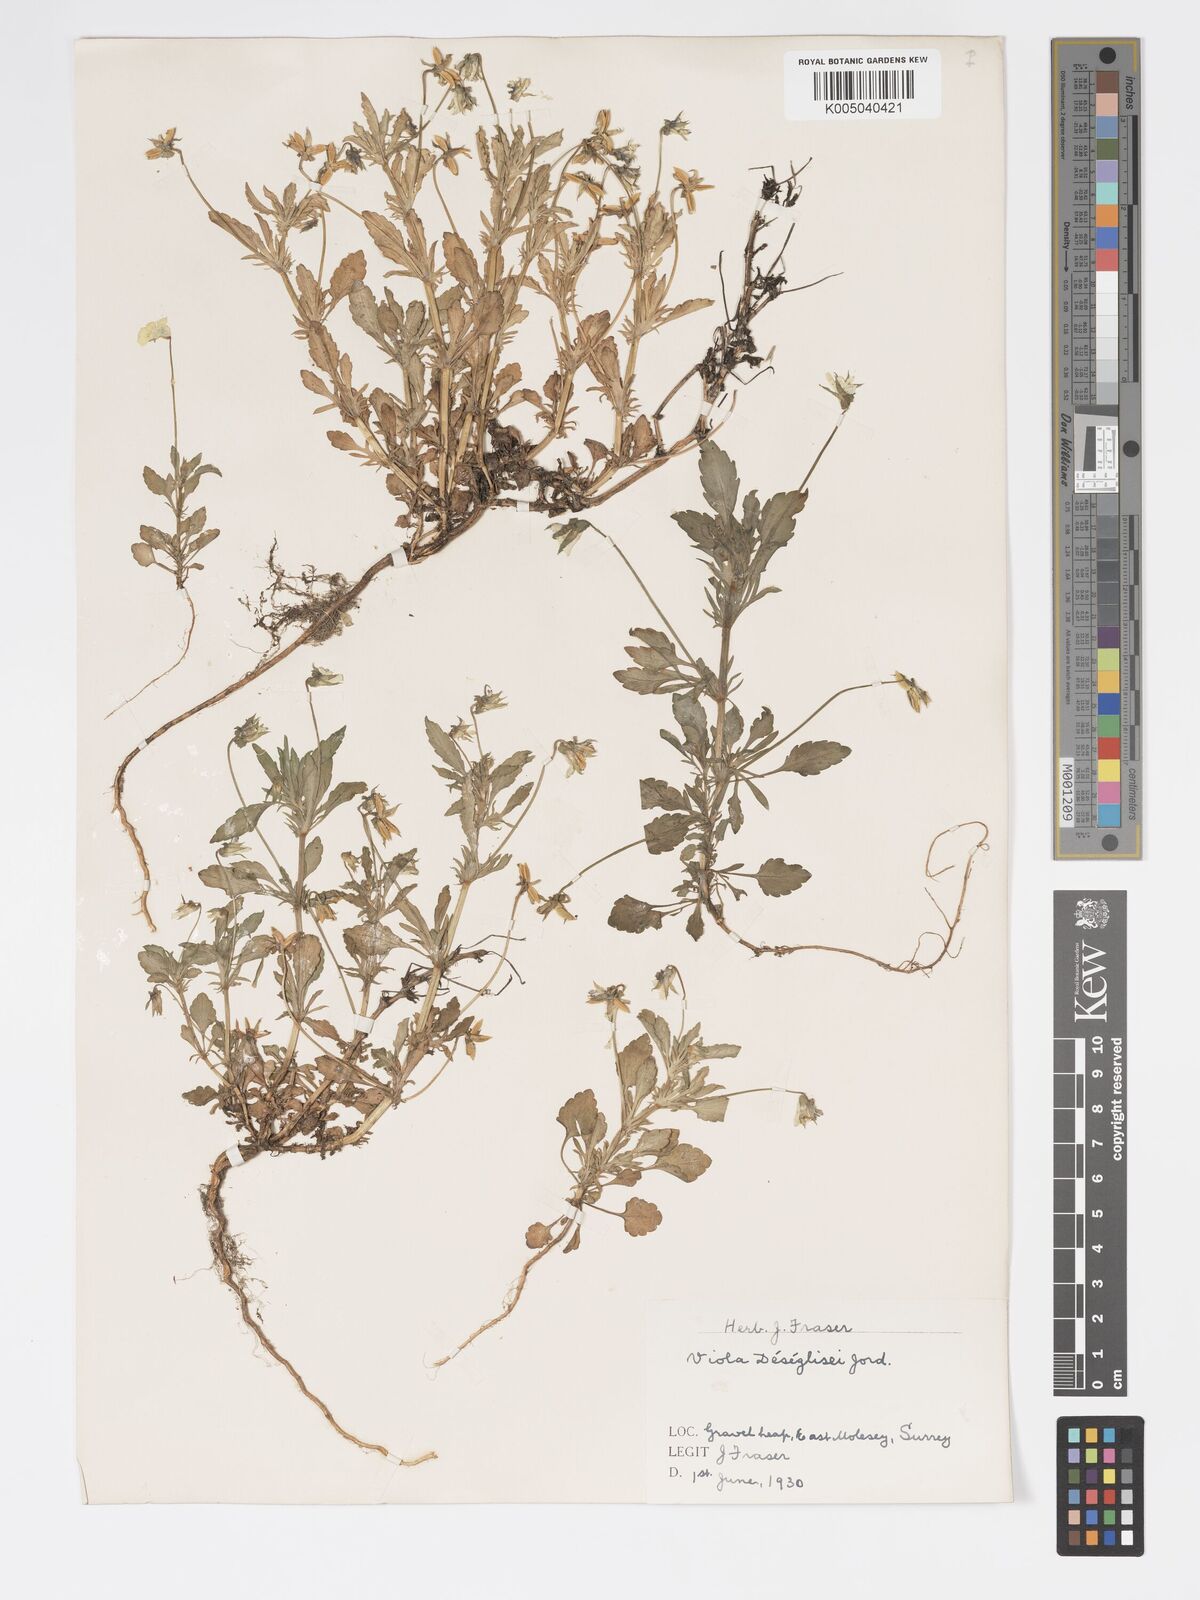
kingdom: Plantae
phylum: Tracheophyta
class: Magnoliopsida
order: Malpighiales
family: Violaceae
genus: Viola
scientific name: Viola arvensis
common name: Field pansy
